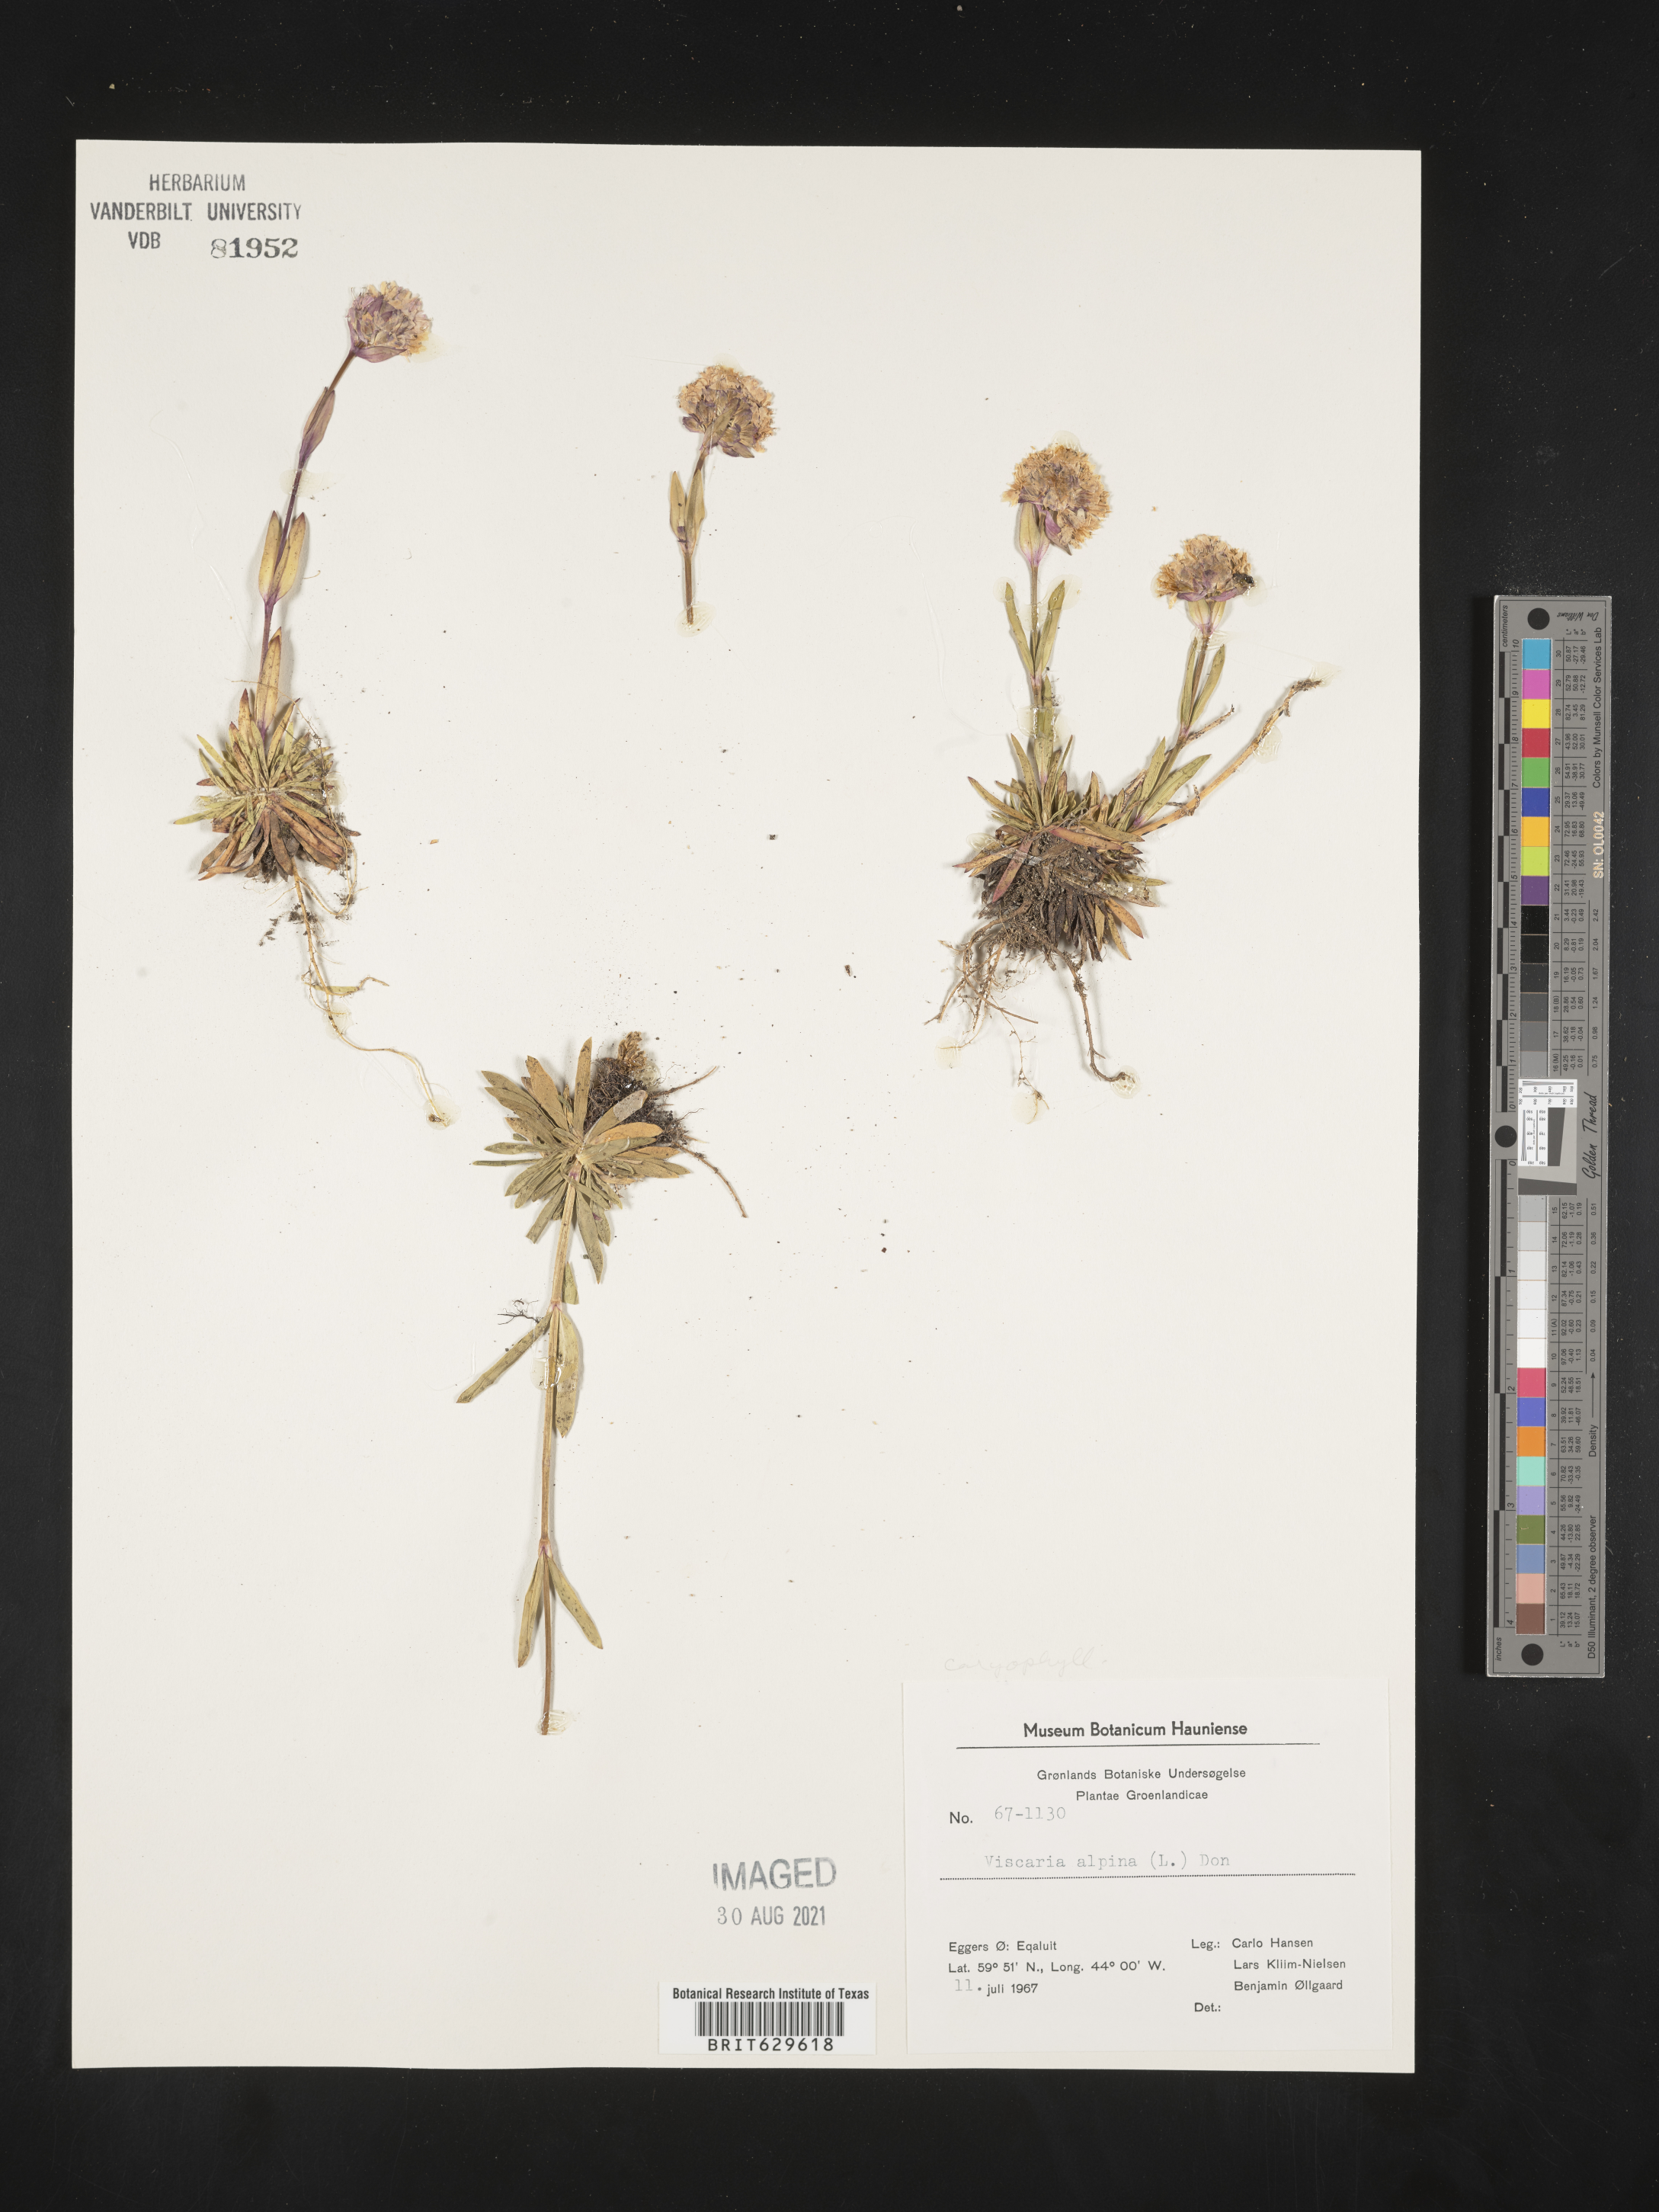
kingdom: Plantae
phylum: Tracheophyta
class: Magnoliopsida
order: Caryophyllales
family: Caryophyllaceae
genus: Viscaria
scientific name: Viscaria alpina
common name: Alpine campion
